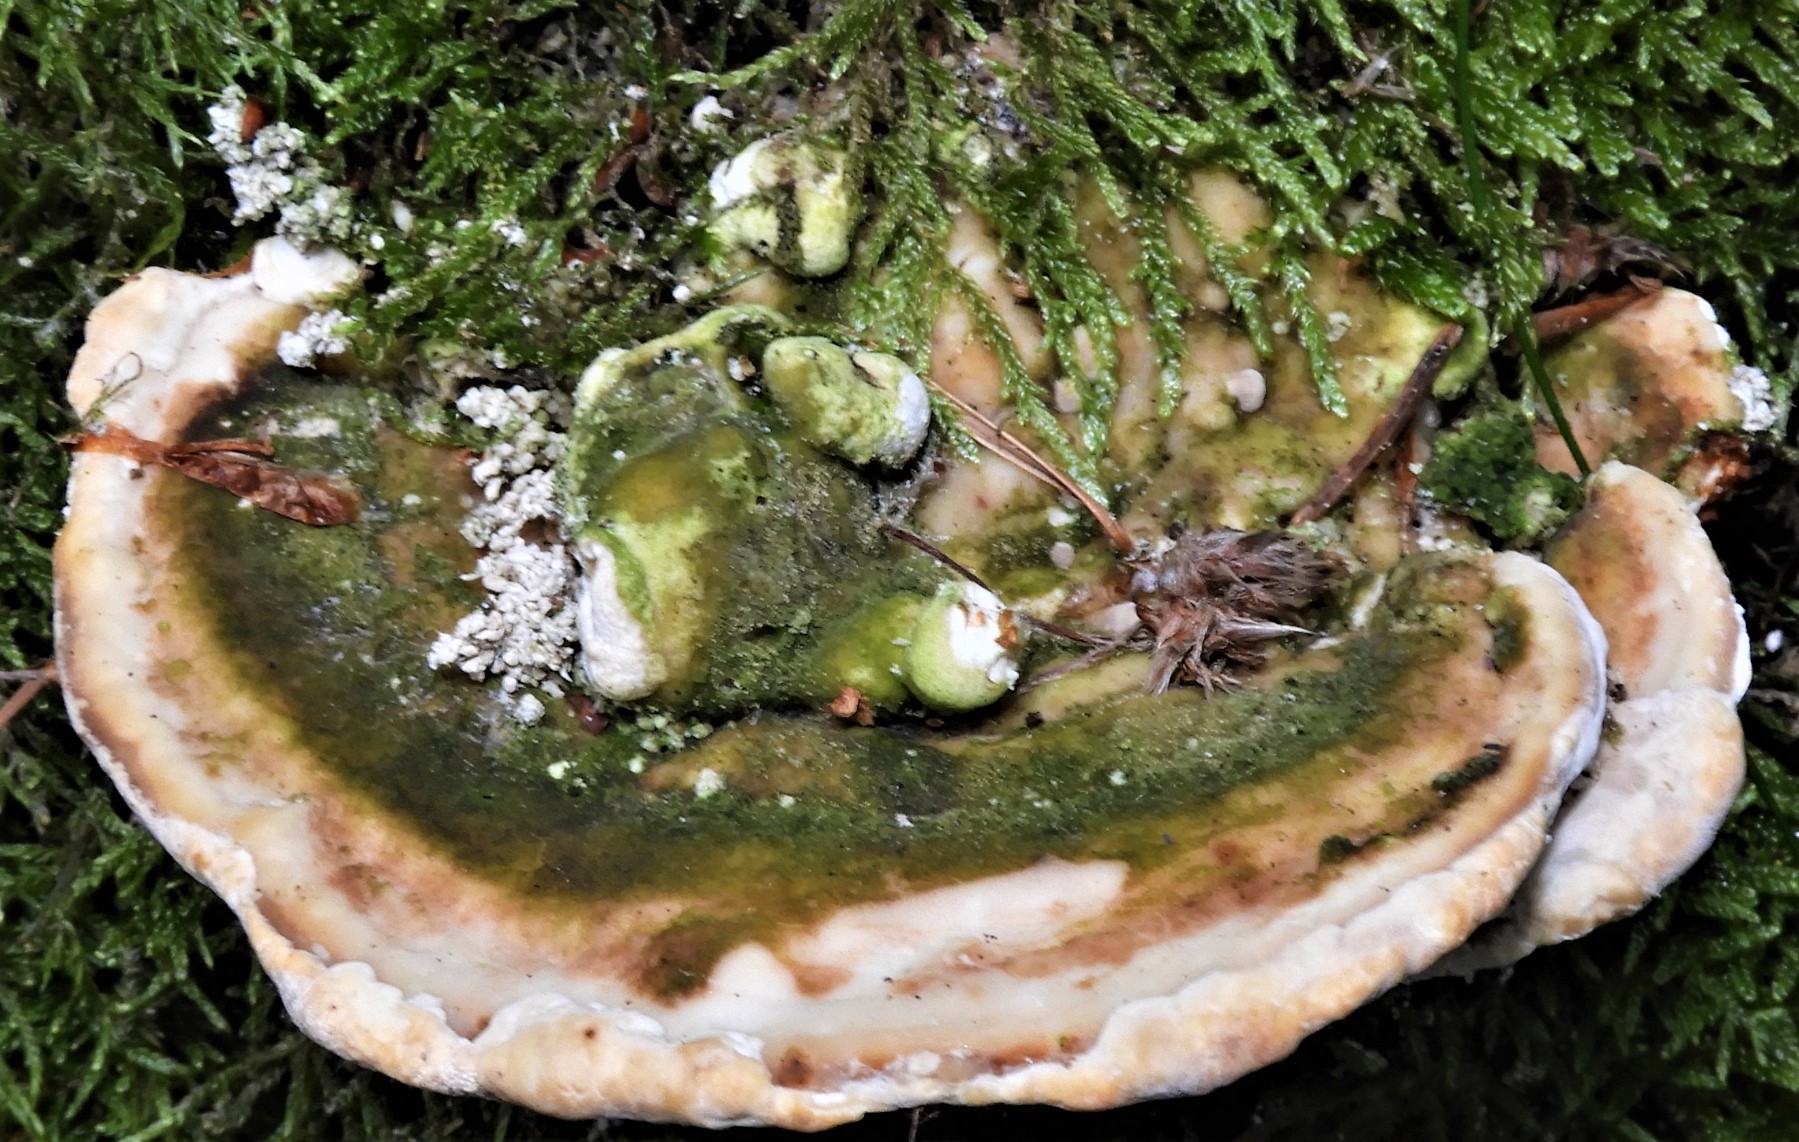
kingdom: Fungi
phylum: Basidiomycota
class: Agaricomycetes
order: Polyporales
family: Polyporaceae
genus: Trametes
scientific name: Trametes gibbosa
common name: puklet læderporesvamp
